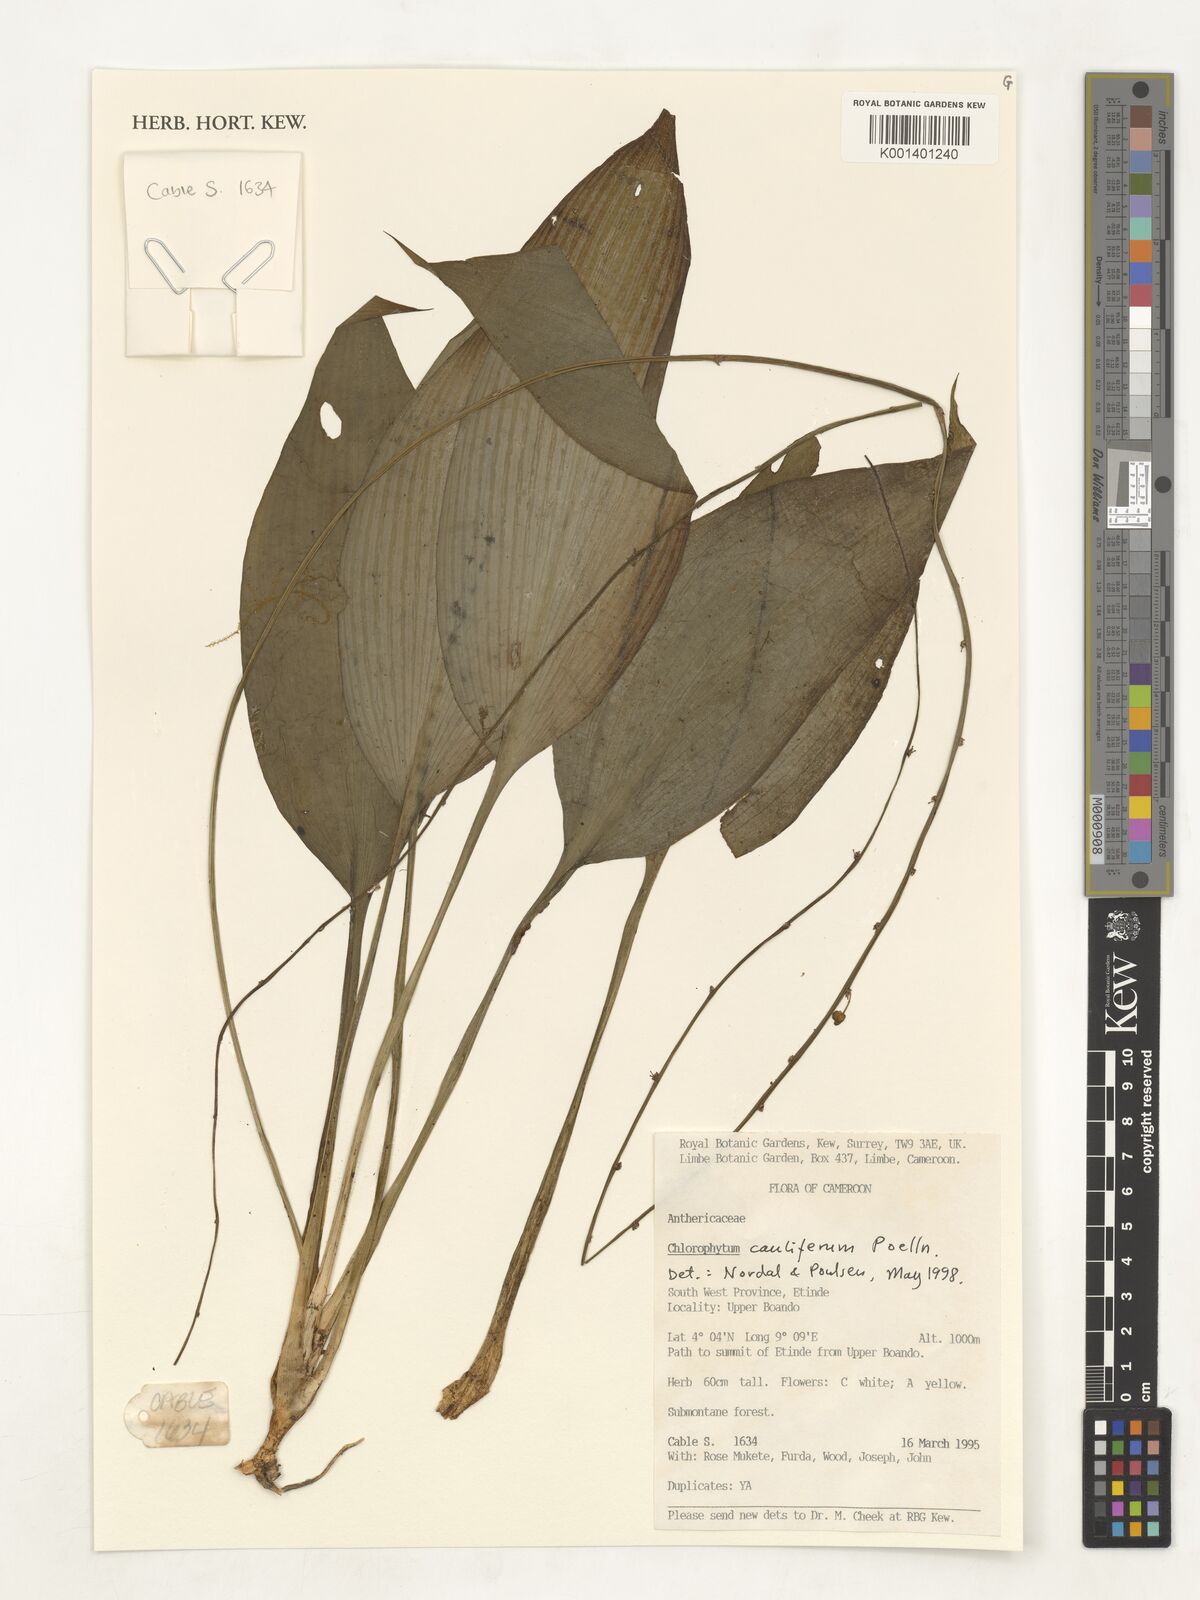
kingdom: Plantae
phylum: Tracheophyta
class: Liliopsida
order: Asparagales
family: Asparagaceae
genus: Chlorophytum
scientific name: Chlorophytum sparsiflorum
